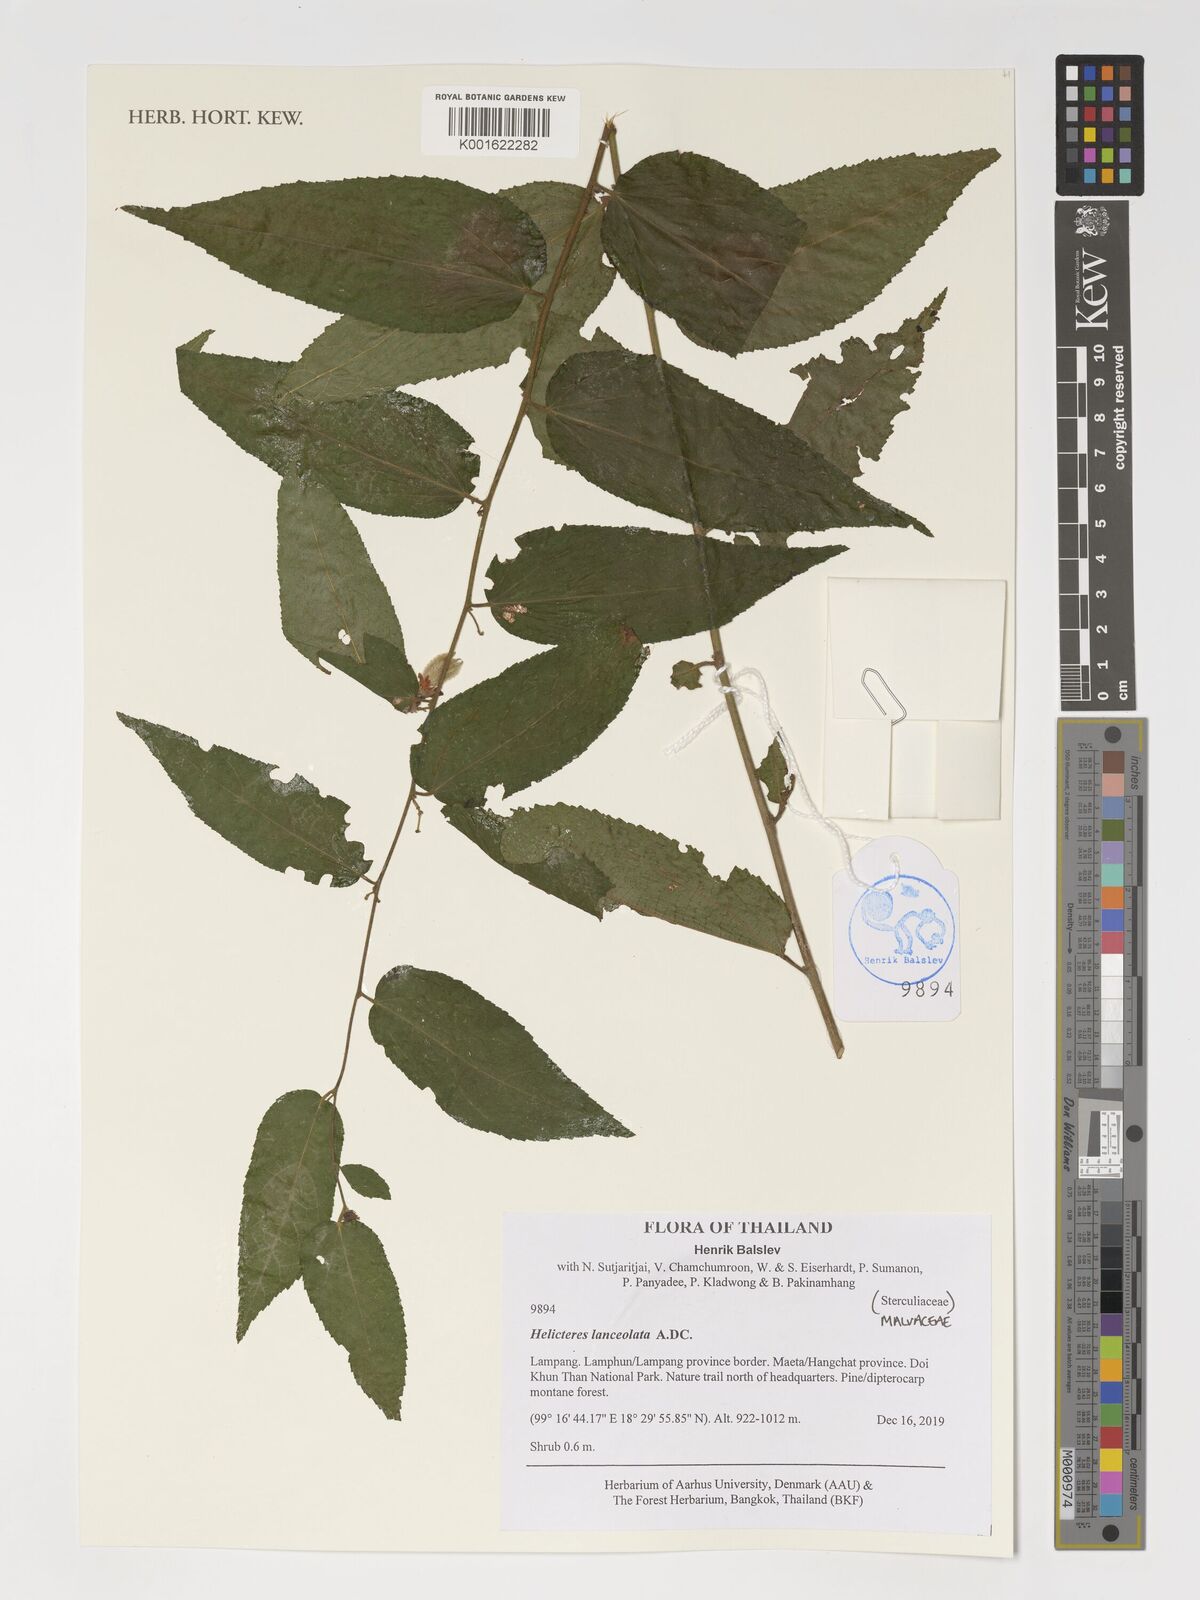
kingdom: Plantae
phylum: Tracheophyta
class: Magnoliopsida
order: Malvales
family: Malvaceae
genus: Helicteres
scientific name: Helicteres lanceolata
